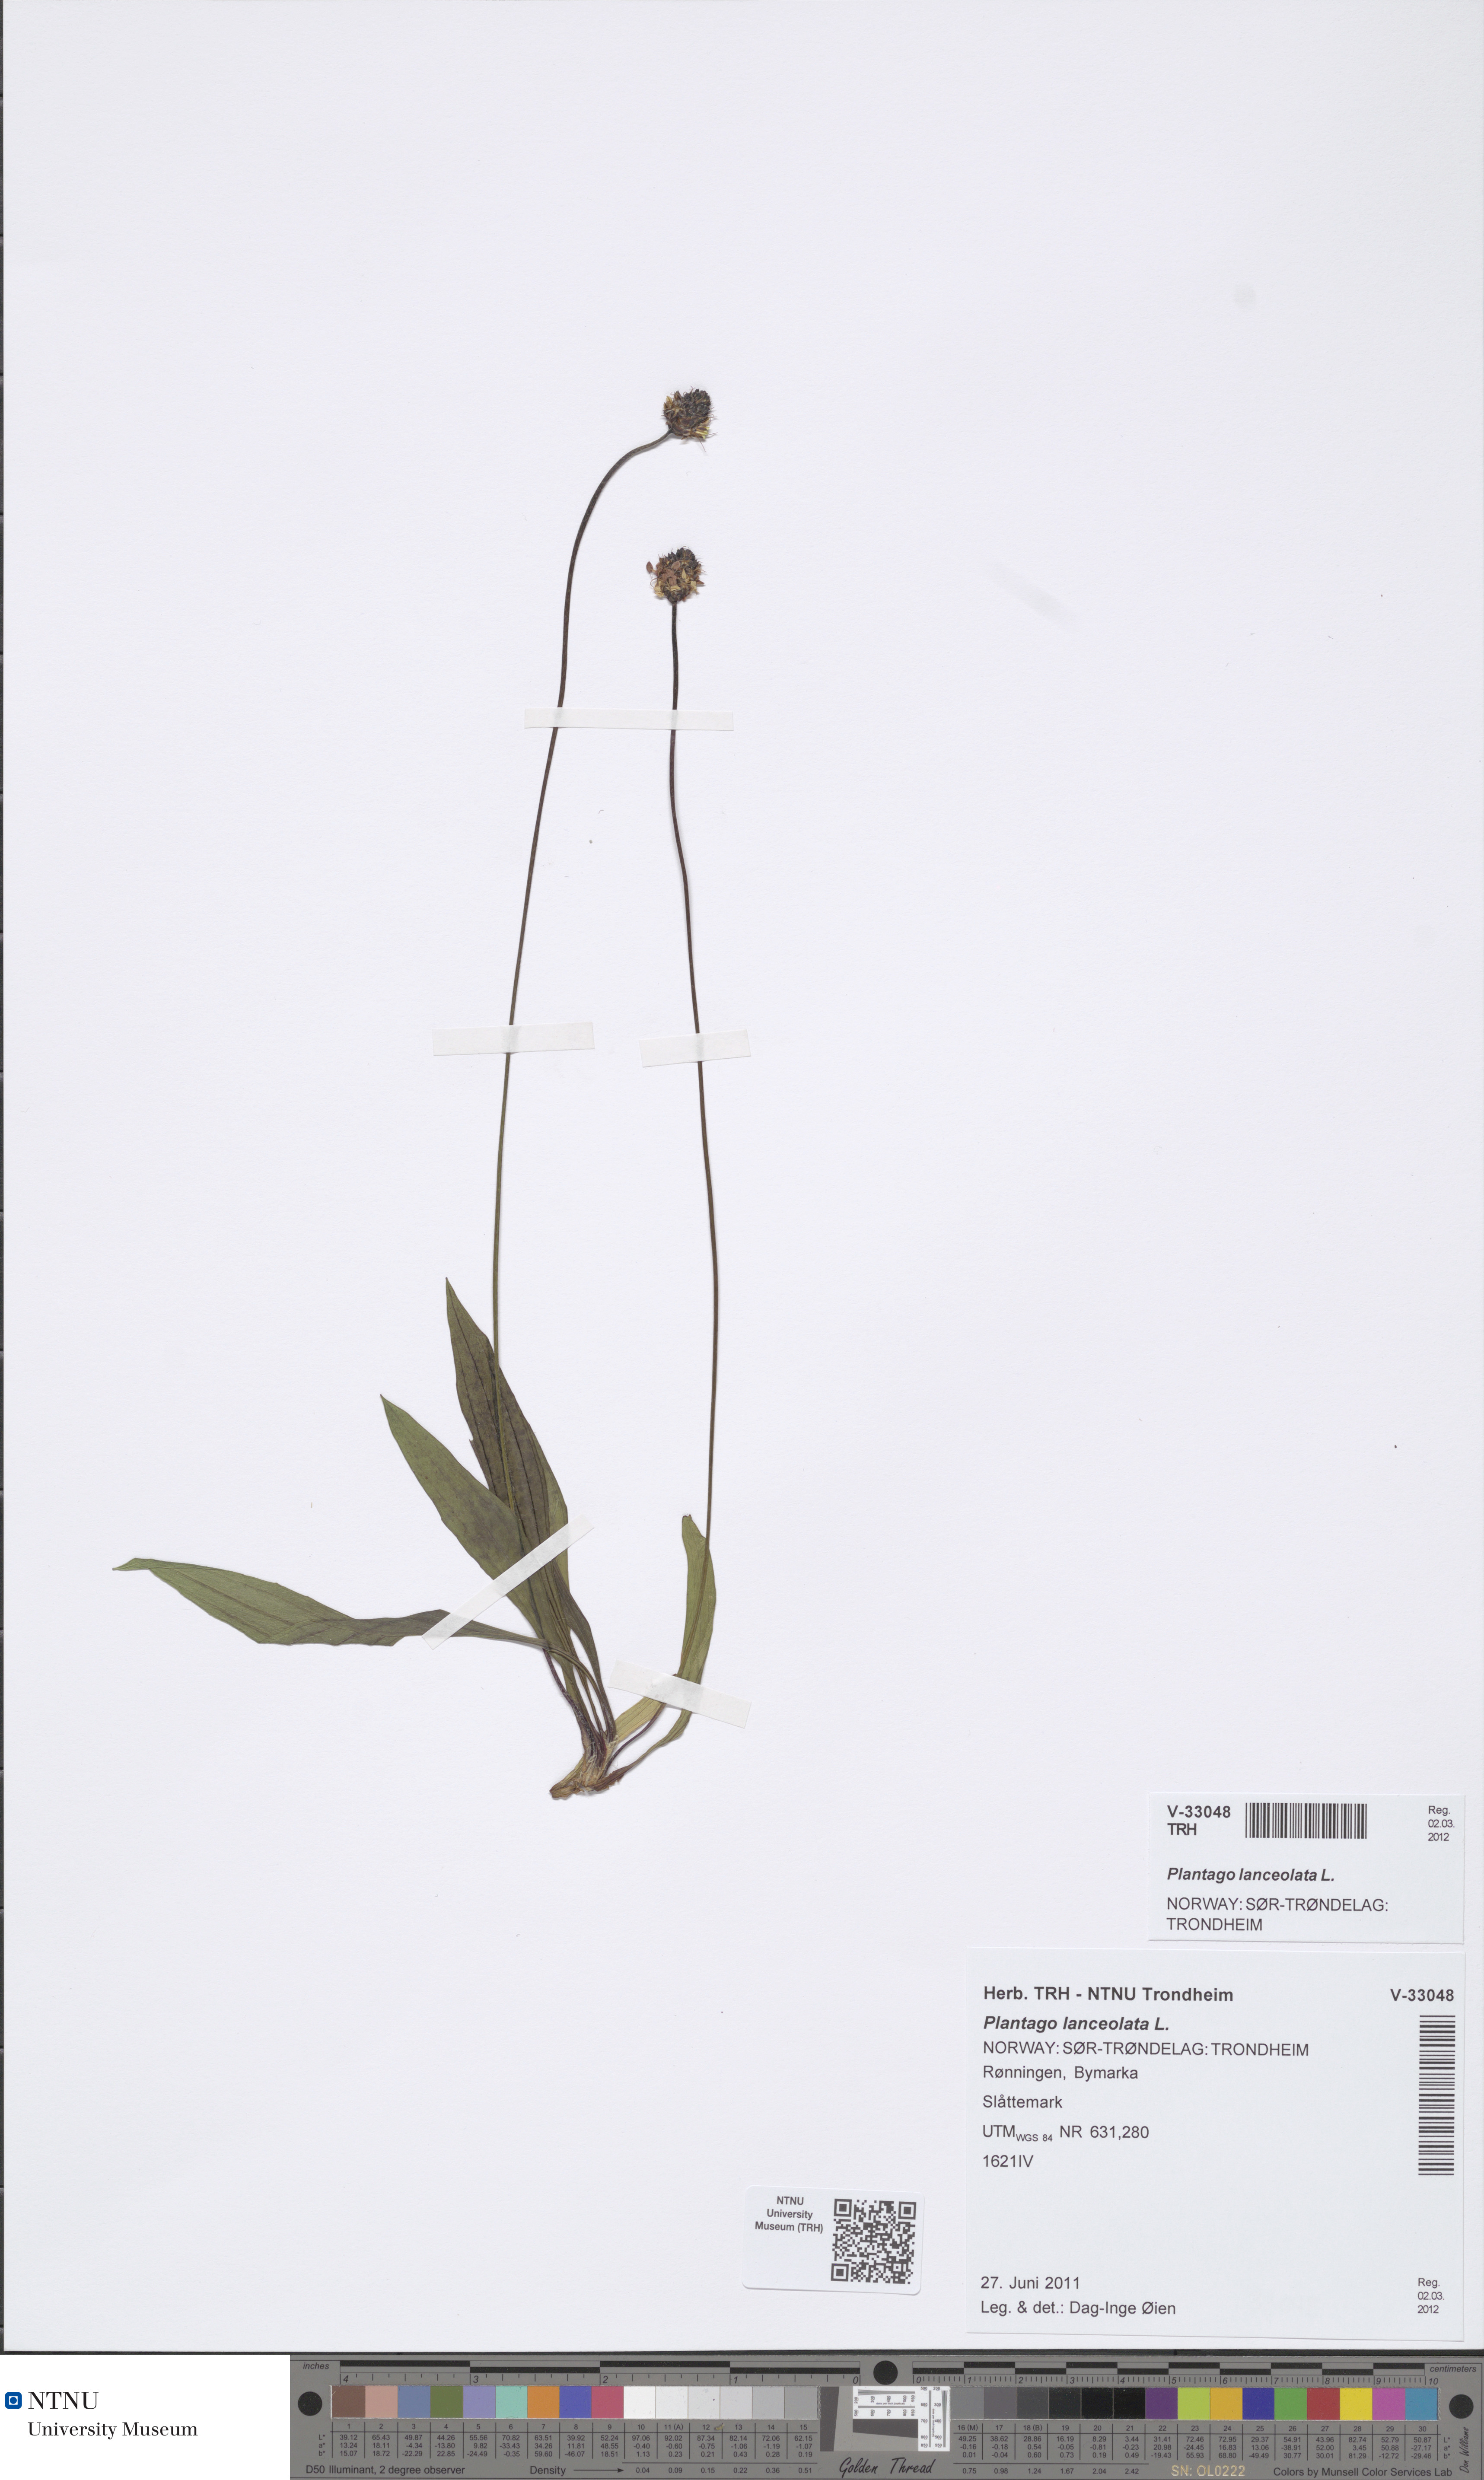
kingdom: Plantae
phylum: Tracheophyta
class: Magnoliopsida
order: Lamiales
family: Plantaginaceae
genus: Plantago
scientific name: Plantago lanceolata
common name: Ribwort plantain
